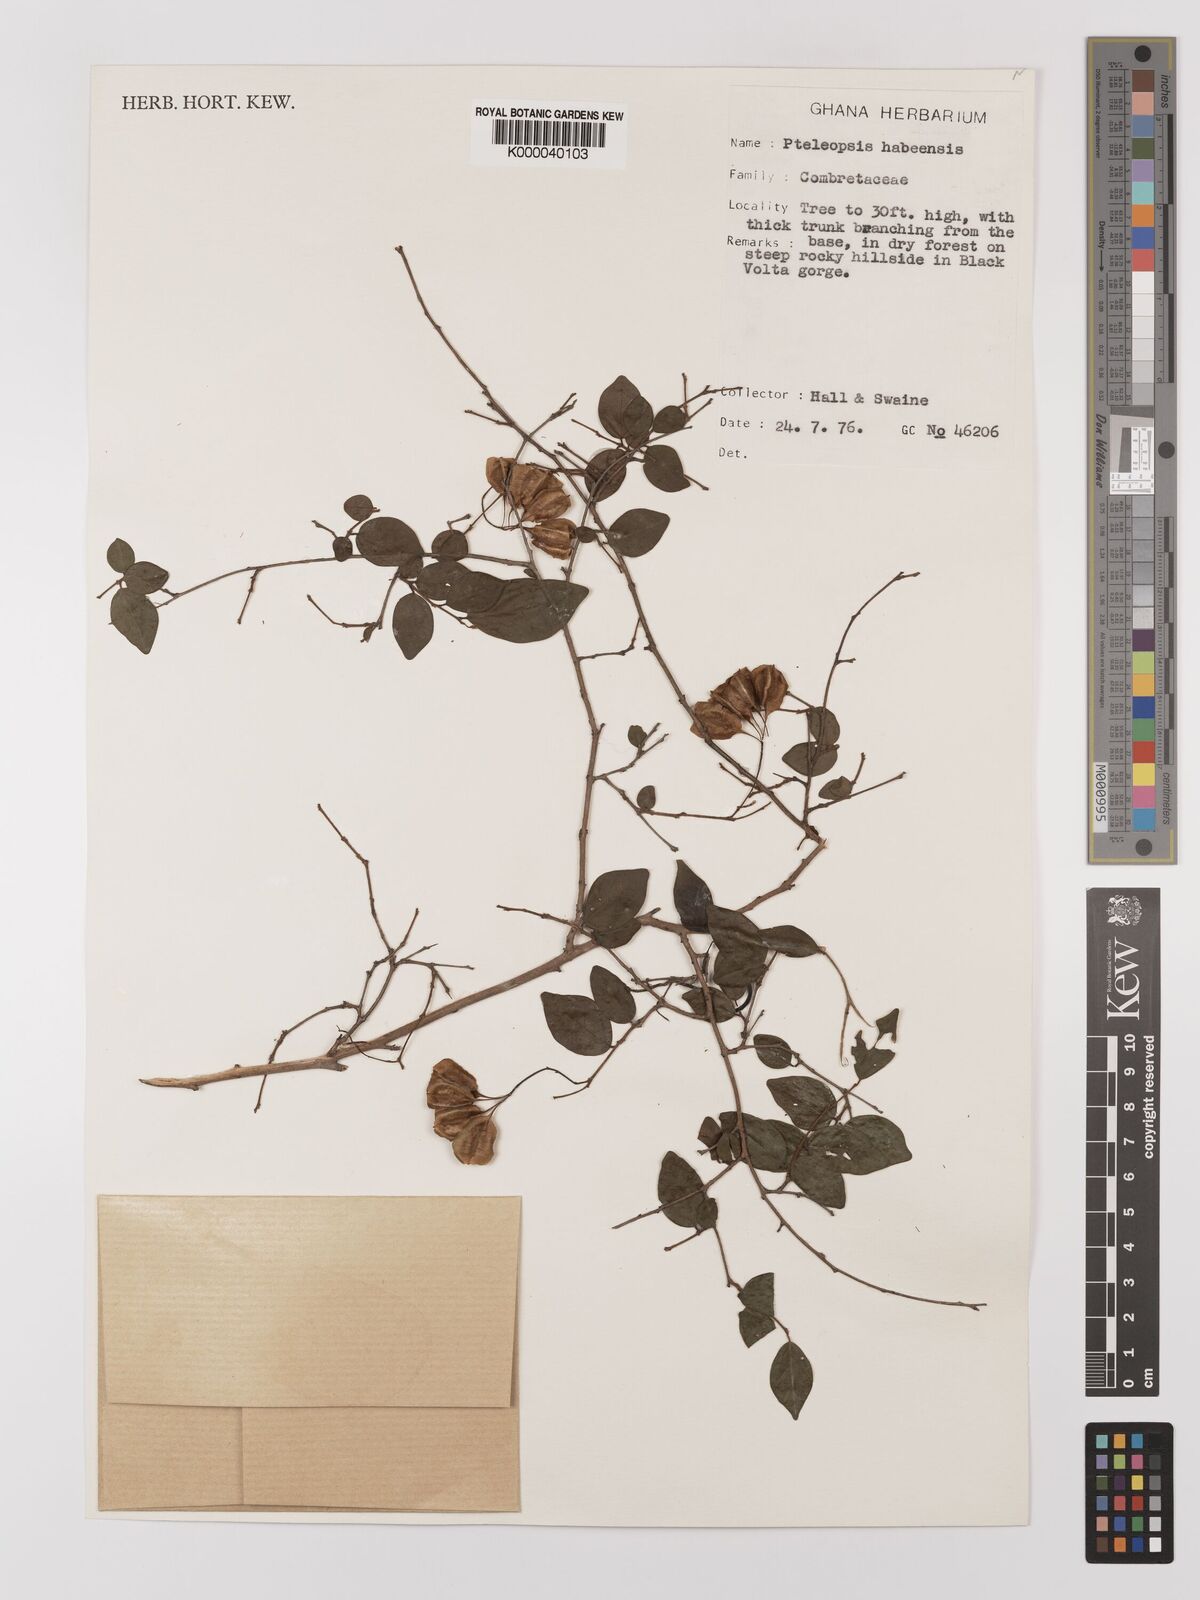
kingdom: Plantae
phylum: Tracheophyta
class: Magnoliopsida
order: Myrtales
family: Combretaceae
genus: Terminalia
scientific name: Terminalia
